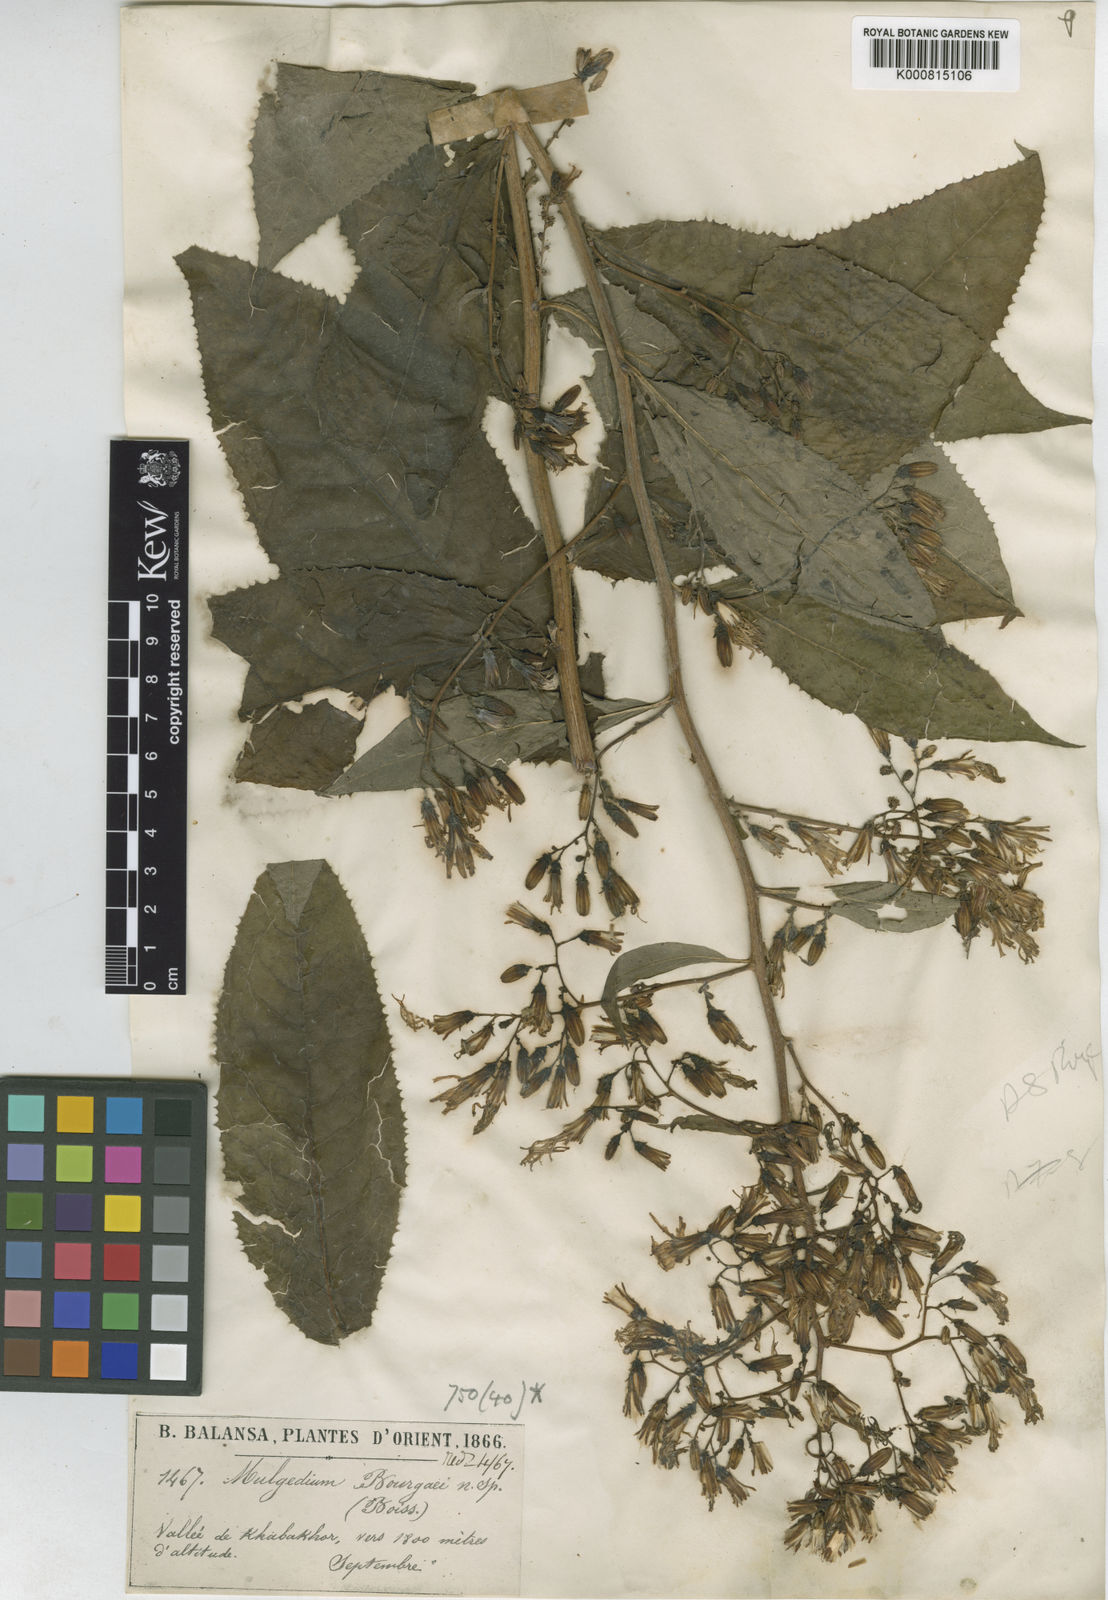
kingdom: Plantae
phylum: Tracheophyta
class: Magnoliopsida
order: Asterales
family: Asteraceae
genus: Lactuca
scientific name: Lactuca bourgaei
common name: Pontic blue-sow-thistle
